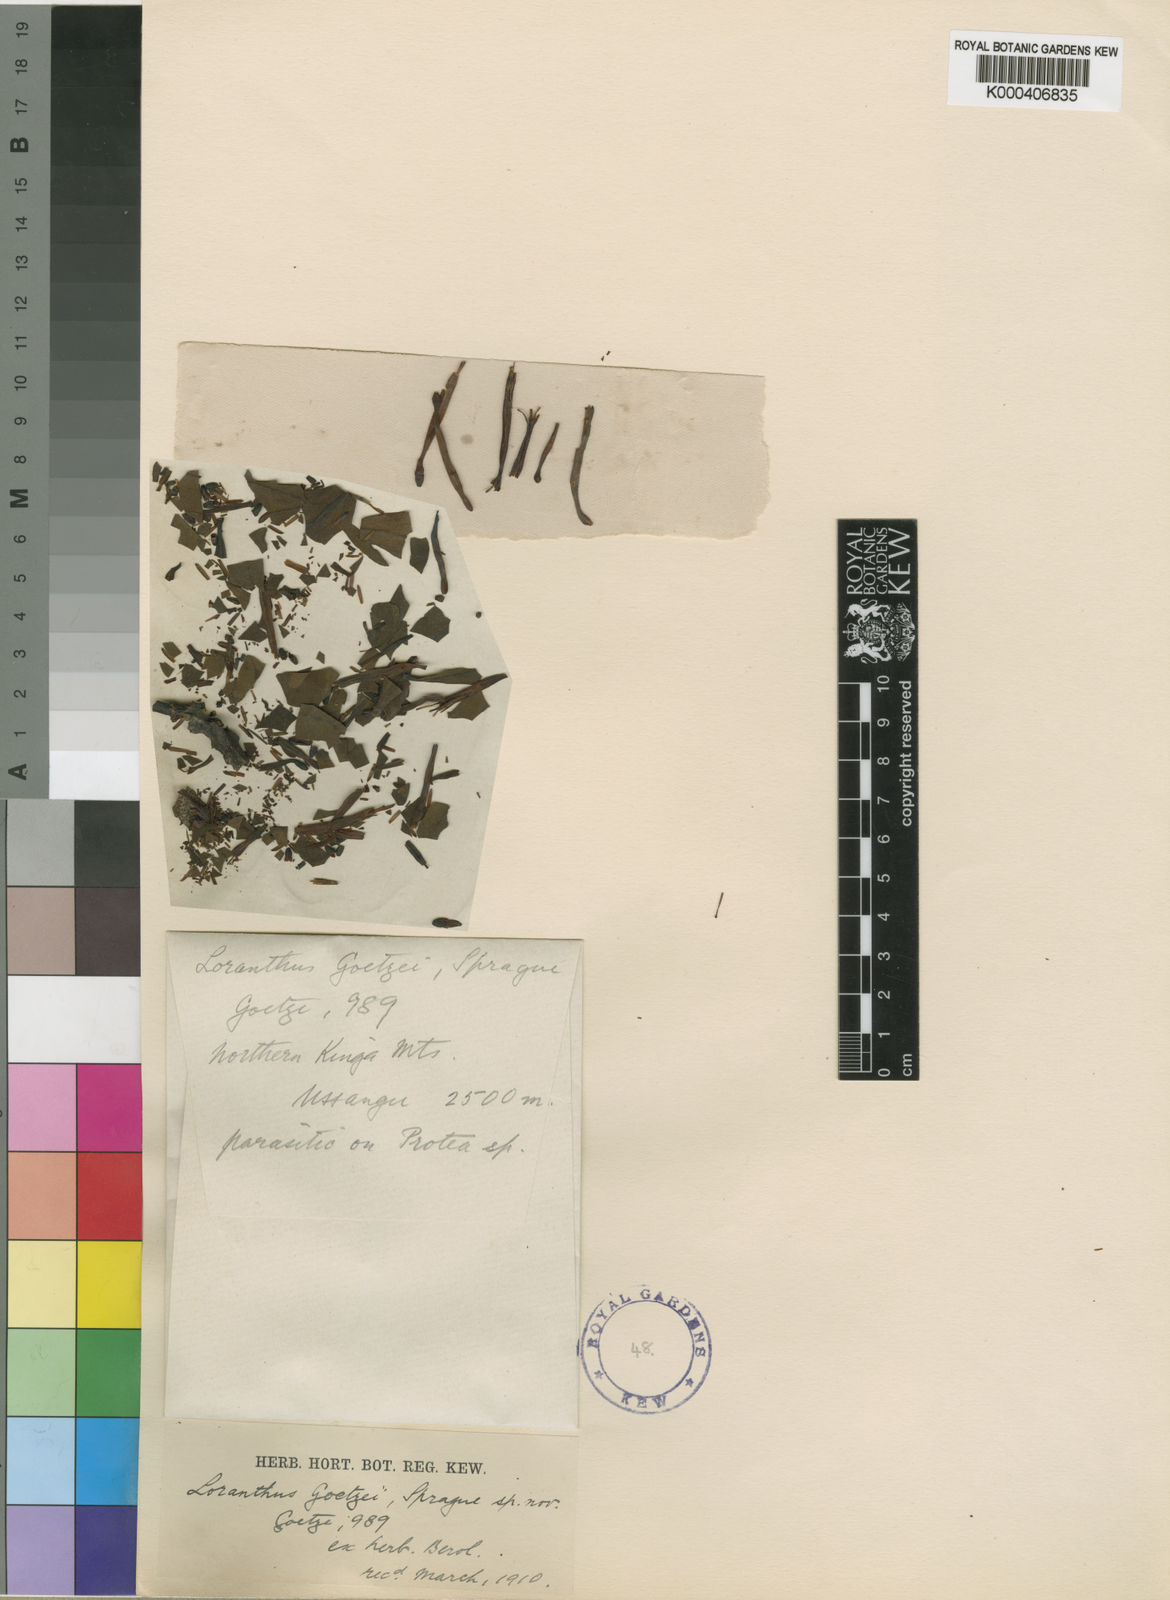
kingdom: Plantae
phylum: Tracheophyta
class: Magnoliopsida
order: Santalales
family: Loranthaceae
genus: Agelanthus
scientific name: Agelanthus fuellebornii
